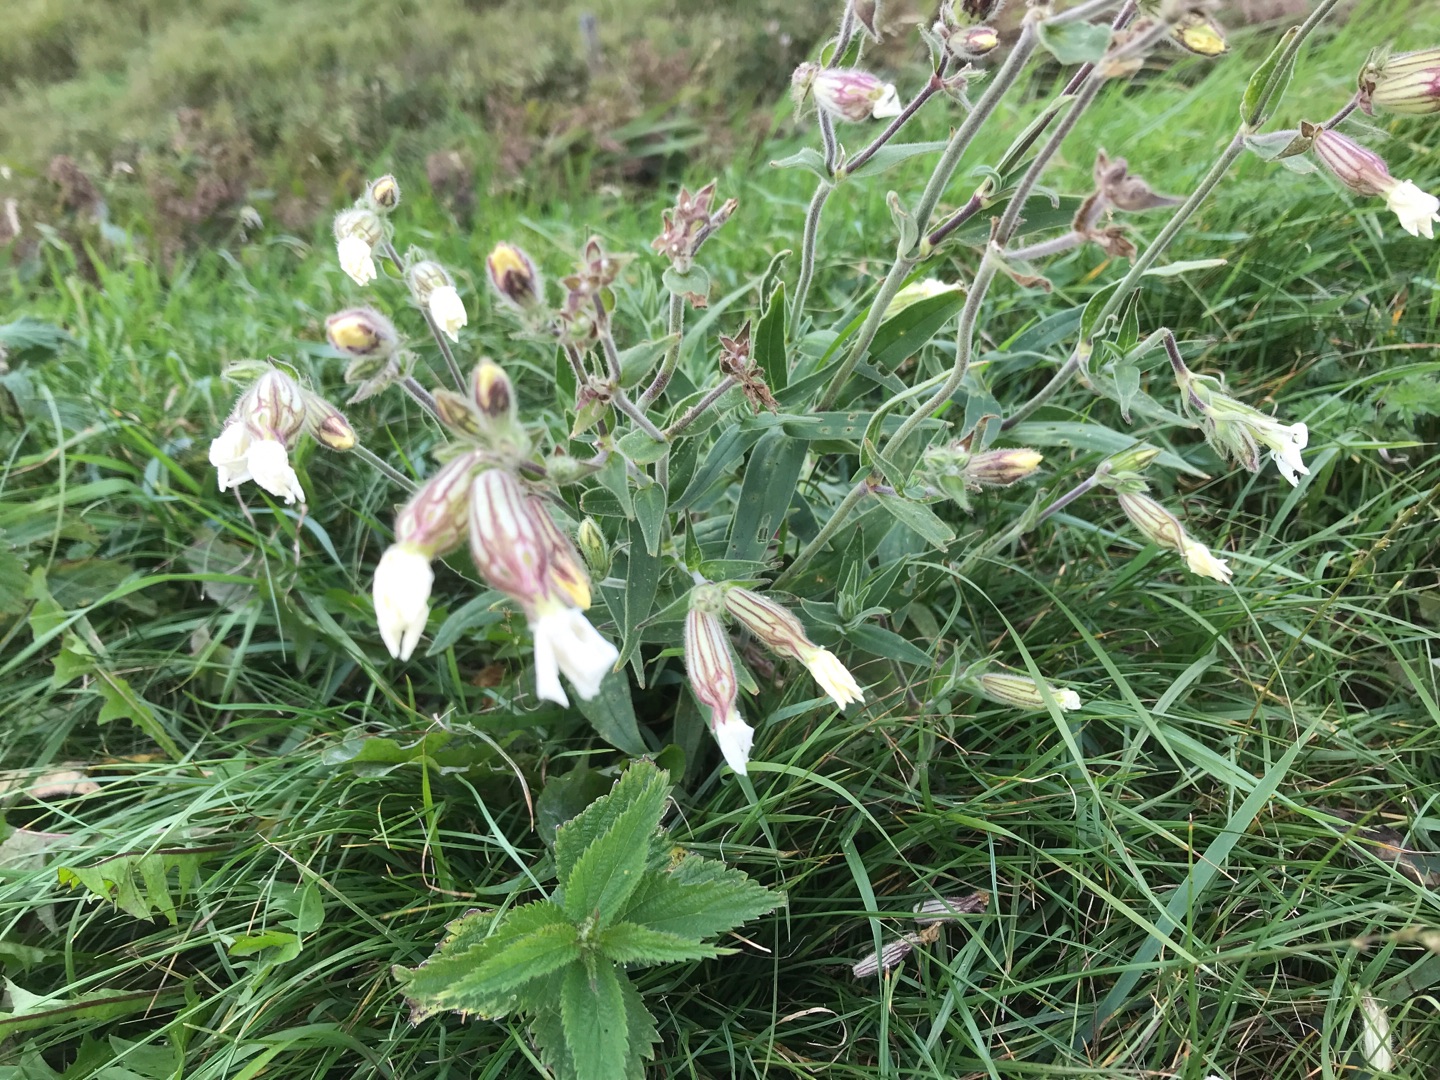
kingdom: Plantae
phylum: Tracheophyta
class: Magnoliopsida
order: Caryophyllales
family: Caryophyllaceae
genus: Silene
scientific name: Silene latifolia
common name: Aftenpragtstjerne
